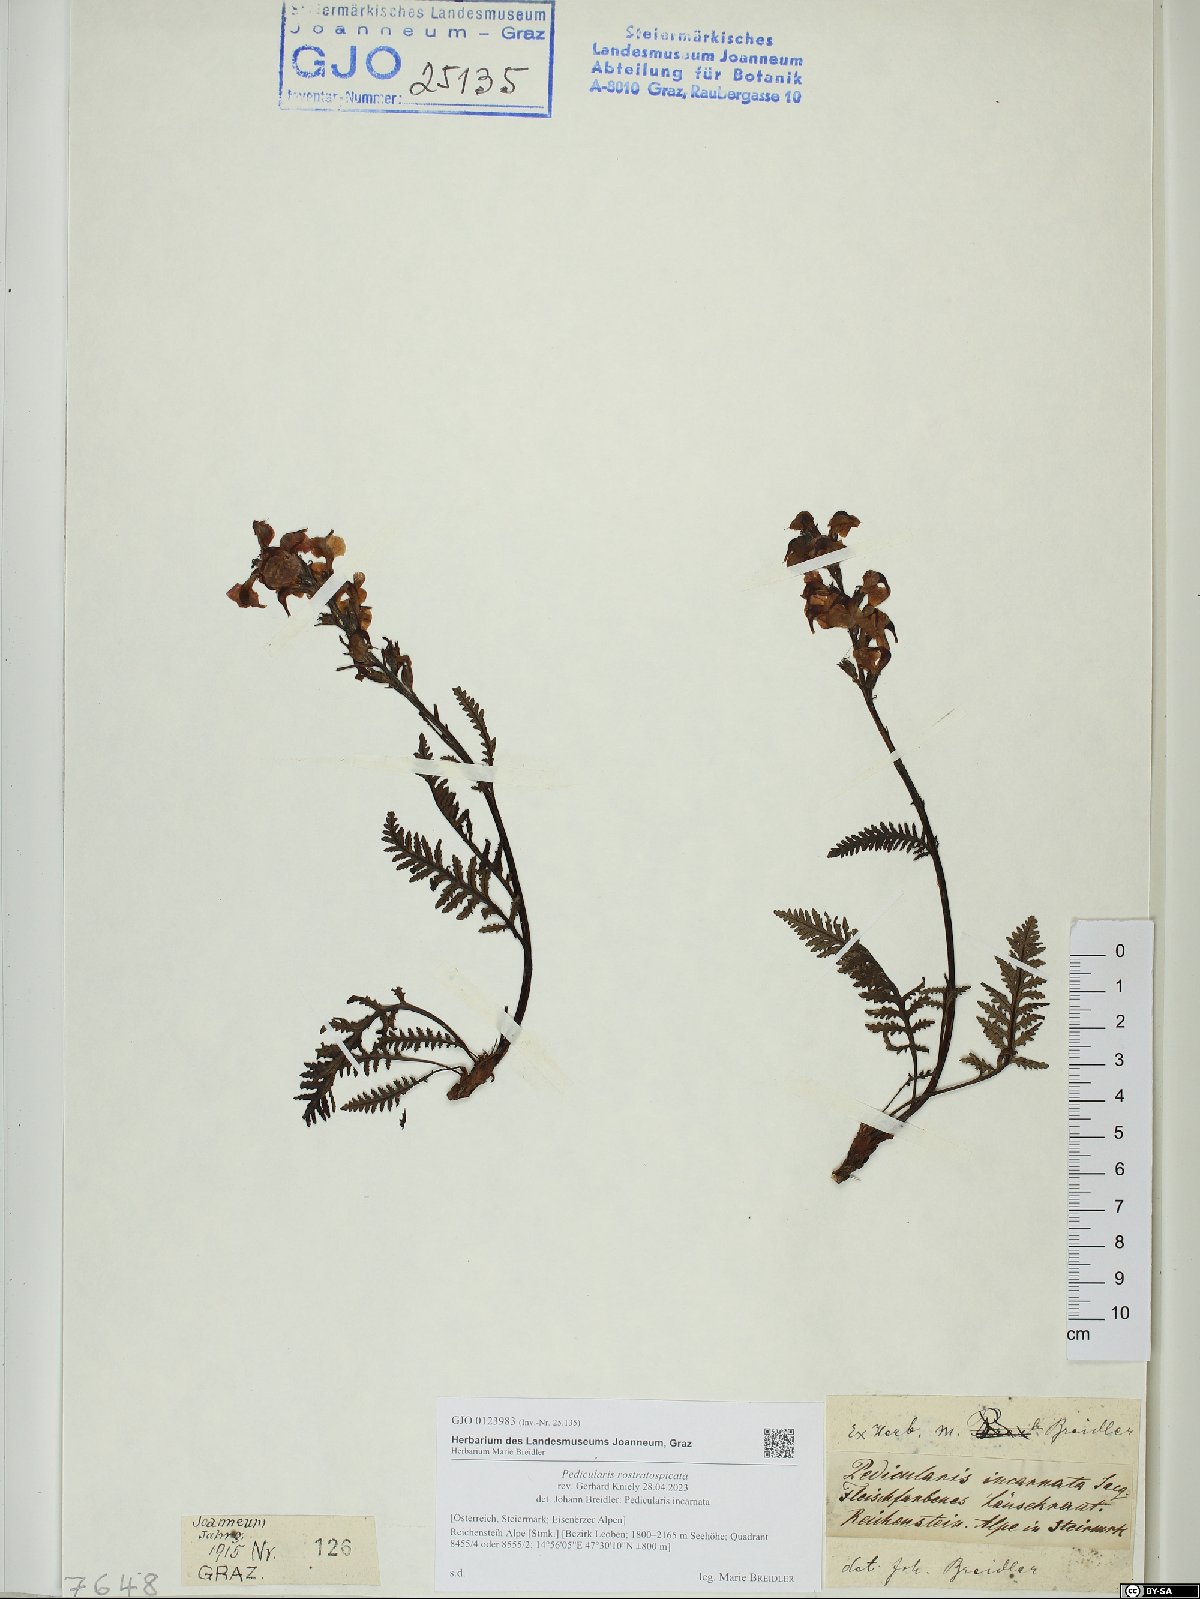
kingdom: Plantae
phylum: Tracheophyta
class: Magnoliopsida
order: Lamiales
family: Orobanchaceae
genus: Pedicularis
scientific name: Pedicularis rostratospicata
